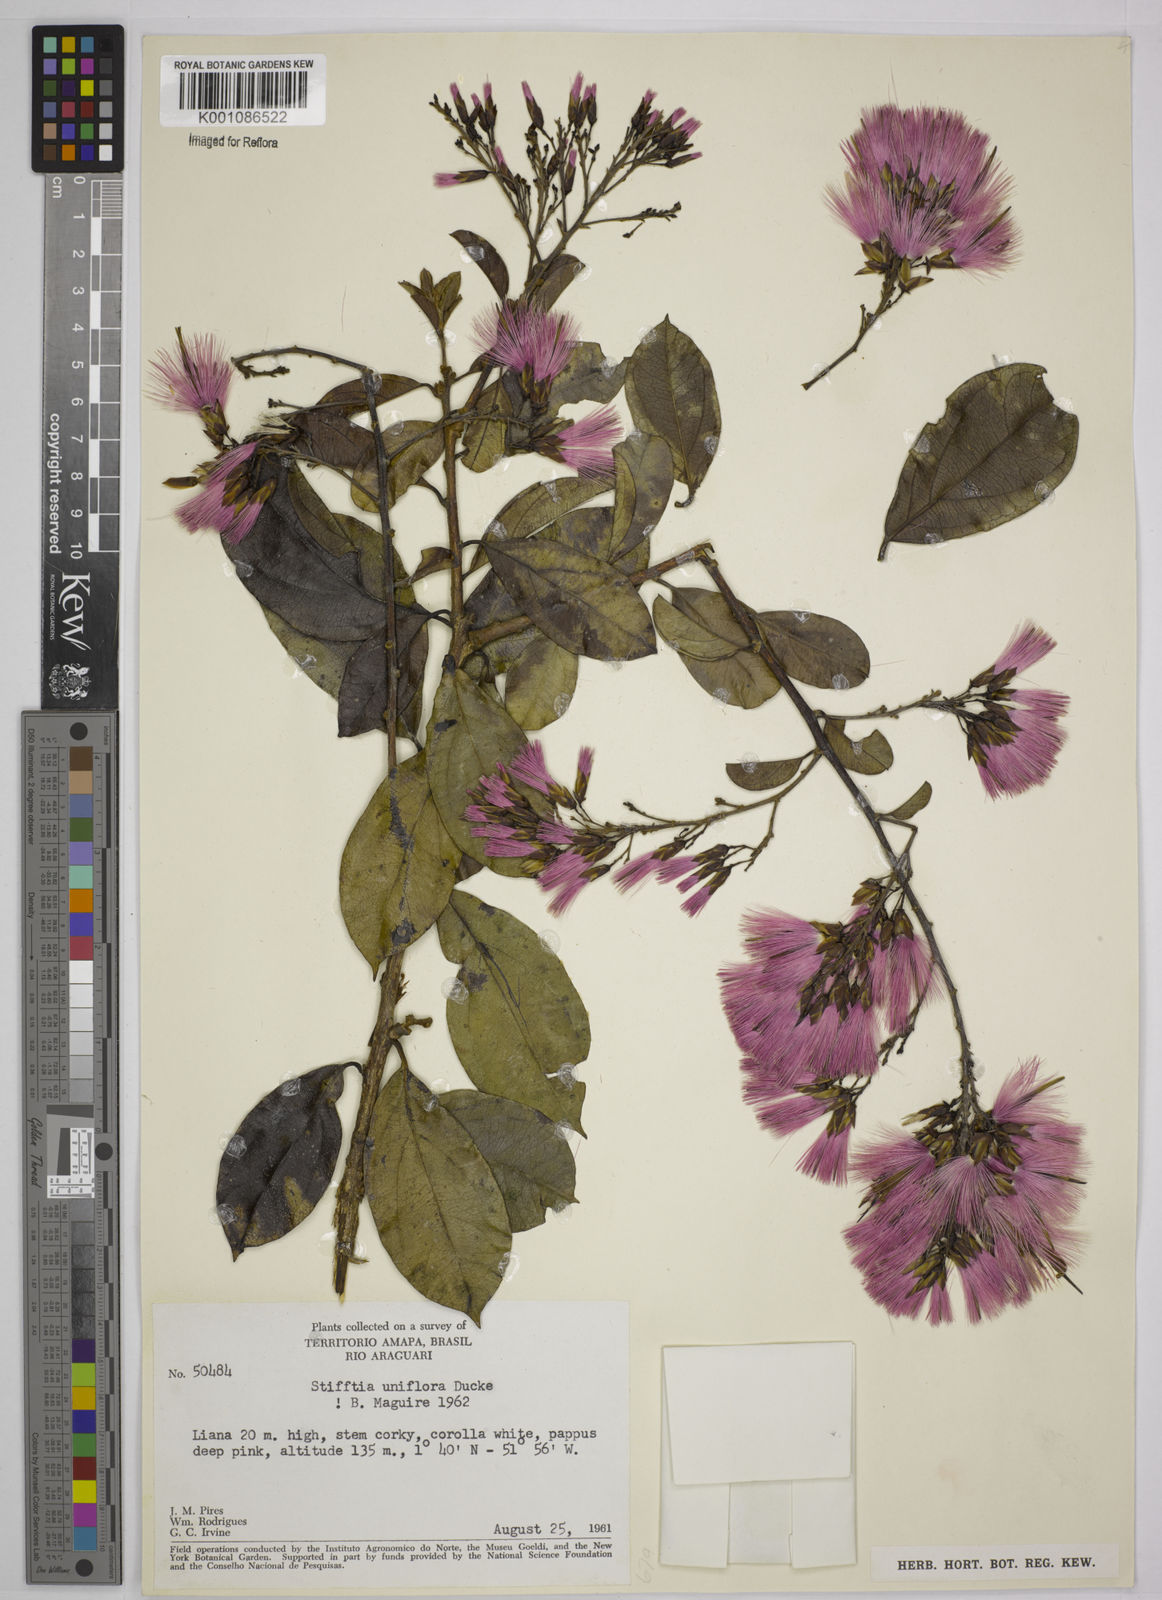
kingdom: Plantae
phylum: Tracheophyta
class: Magnoliopsida
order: Asterales
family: Asteraceae
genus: Stifftia
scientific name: Stifftia uniflora
